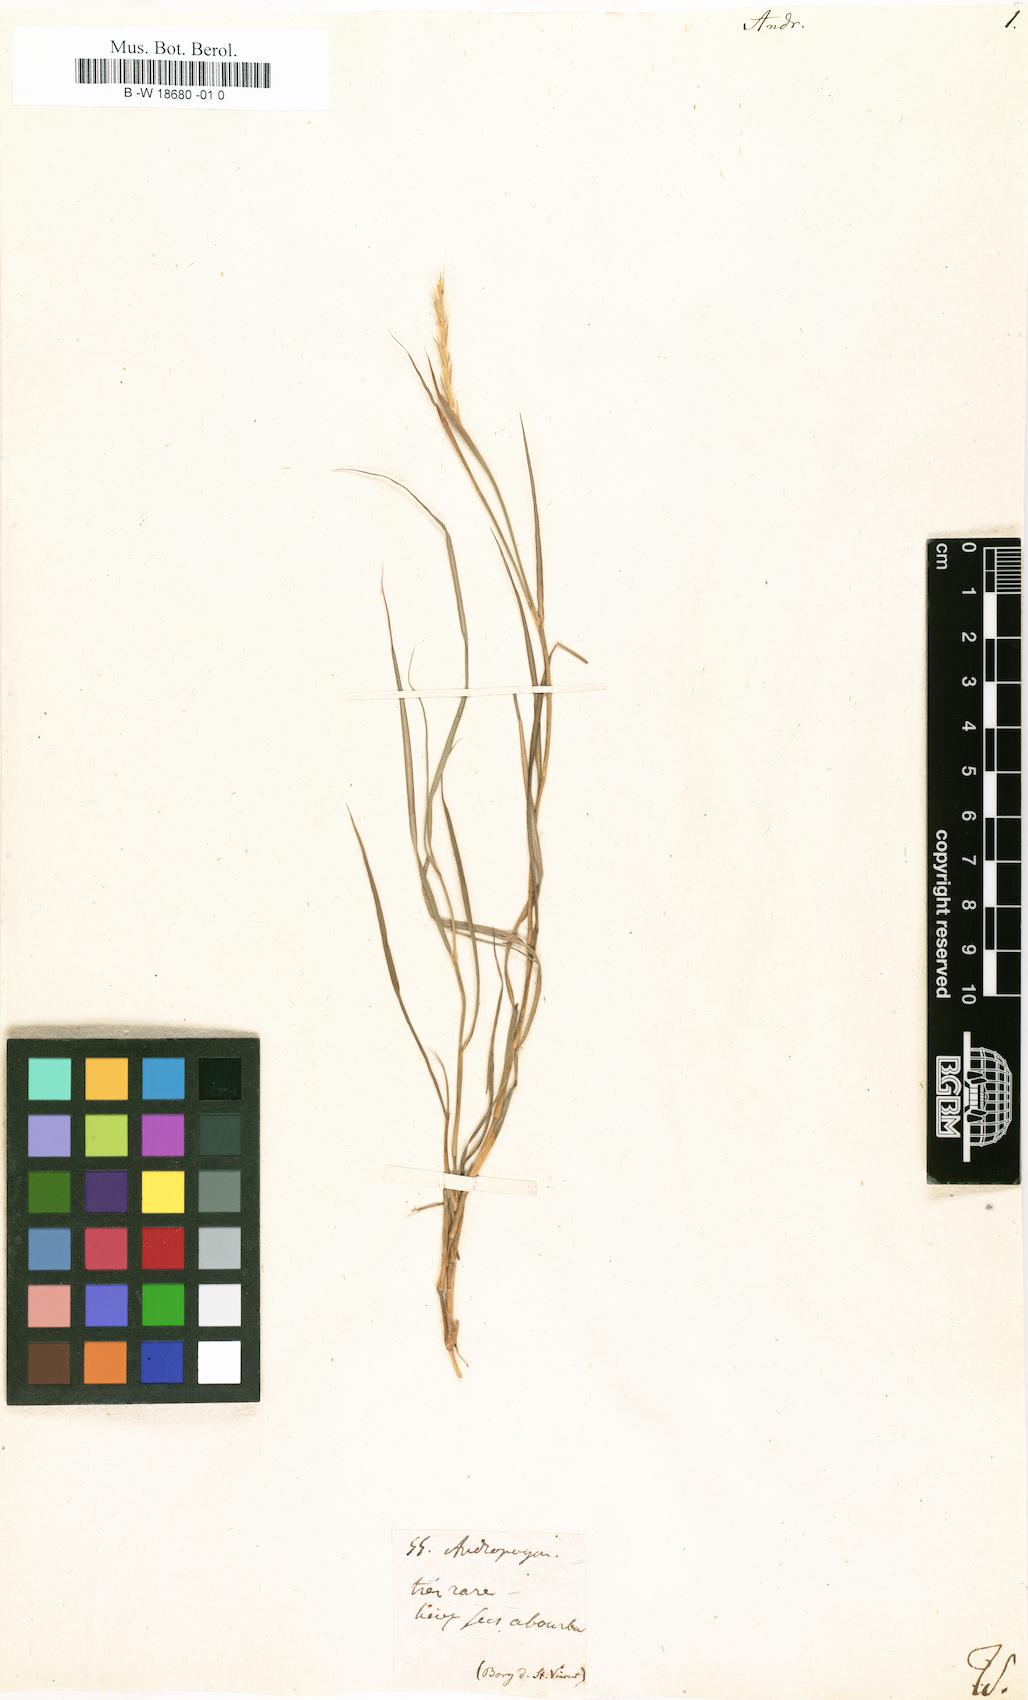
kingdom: Plantae
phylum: Tracheophyta
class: Liliopsida
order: Poales
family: Poaceae
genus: Andropogon
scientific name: Andropogon
